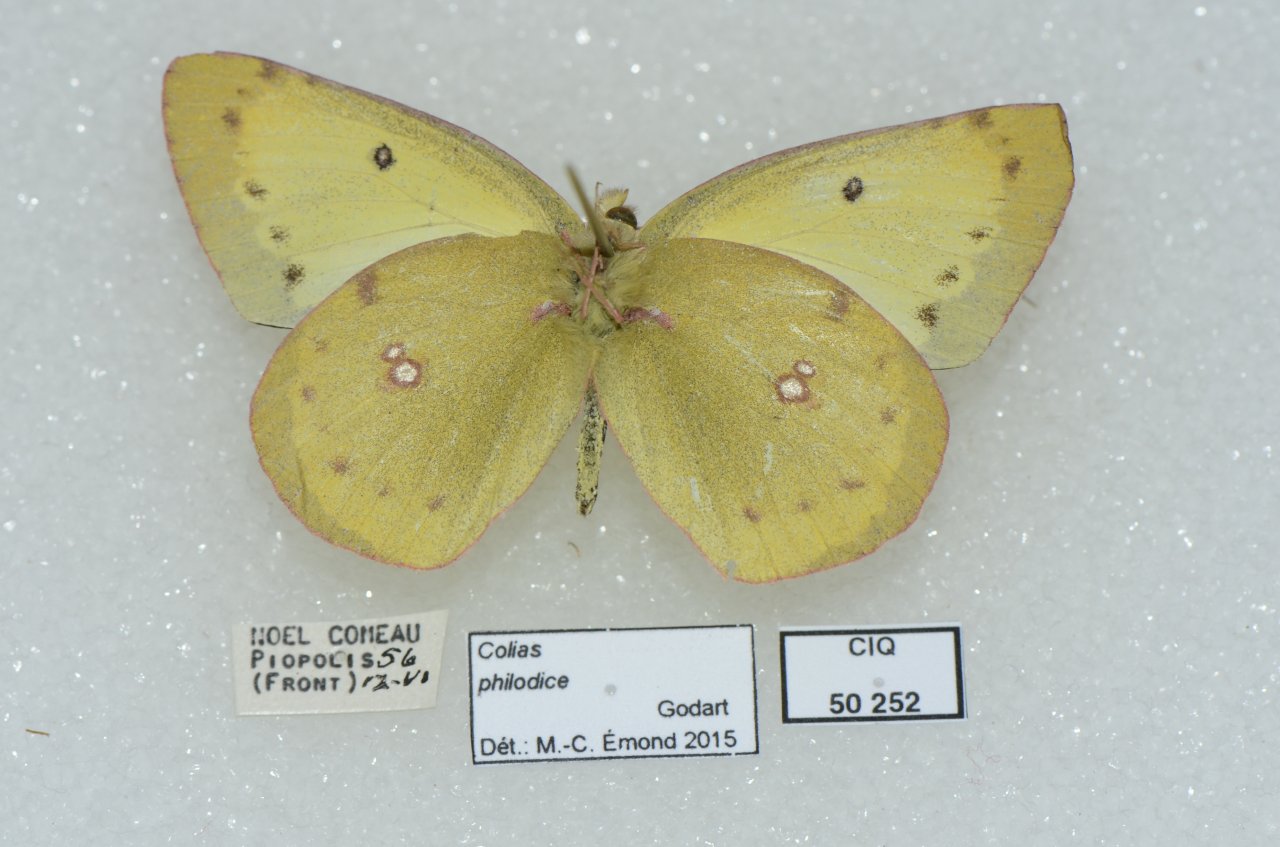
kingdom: Animalia
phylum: Arthropoda
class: Insecta
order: Lepidoptera
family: Pieridae
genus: Colias
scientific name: Colias philodice
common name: Clouded Sulphur
